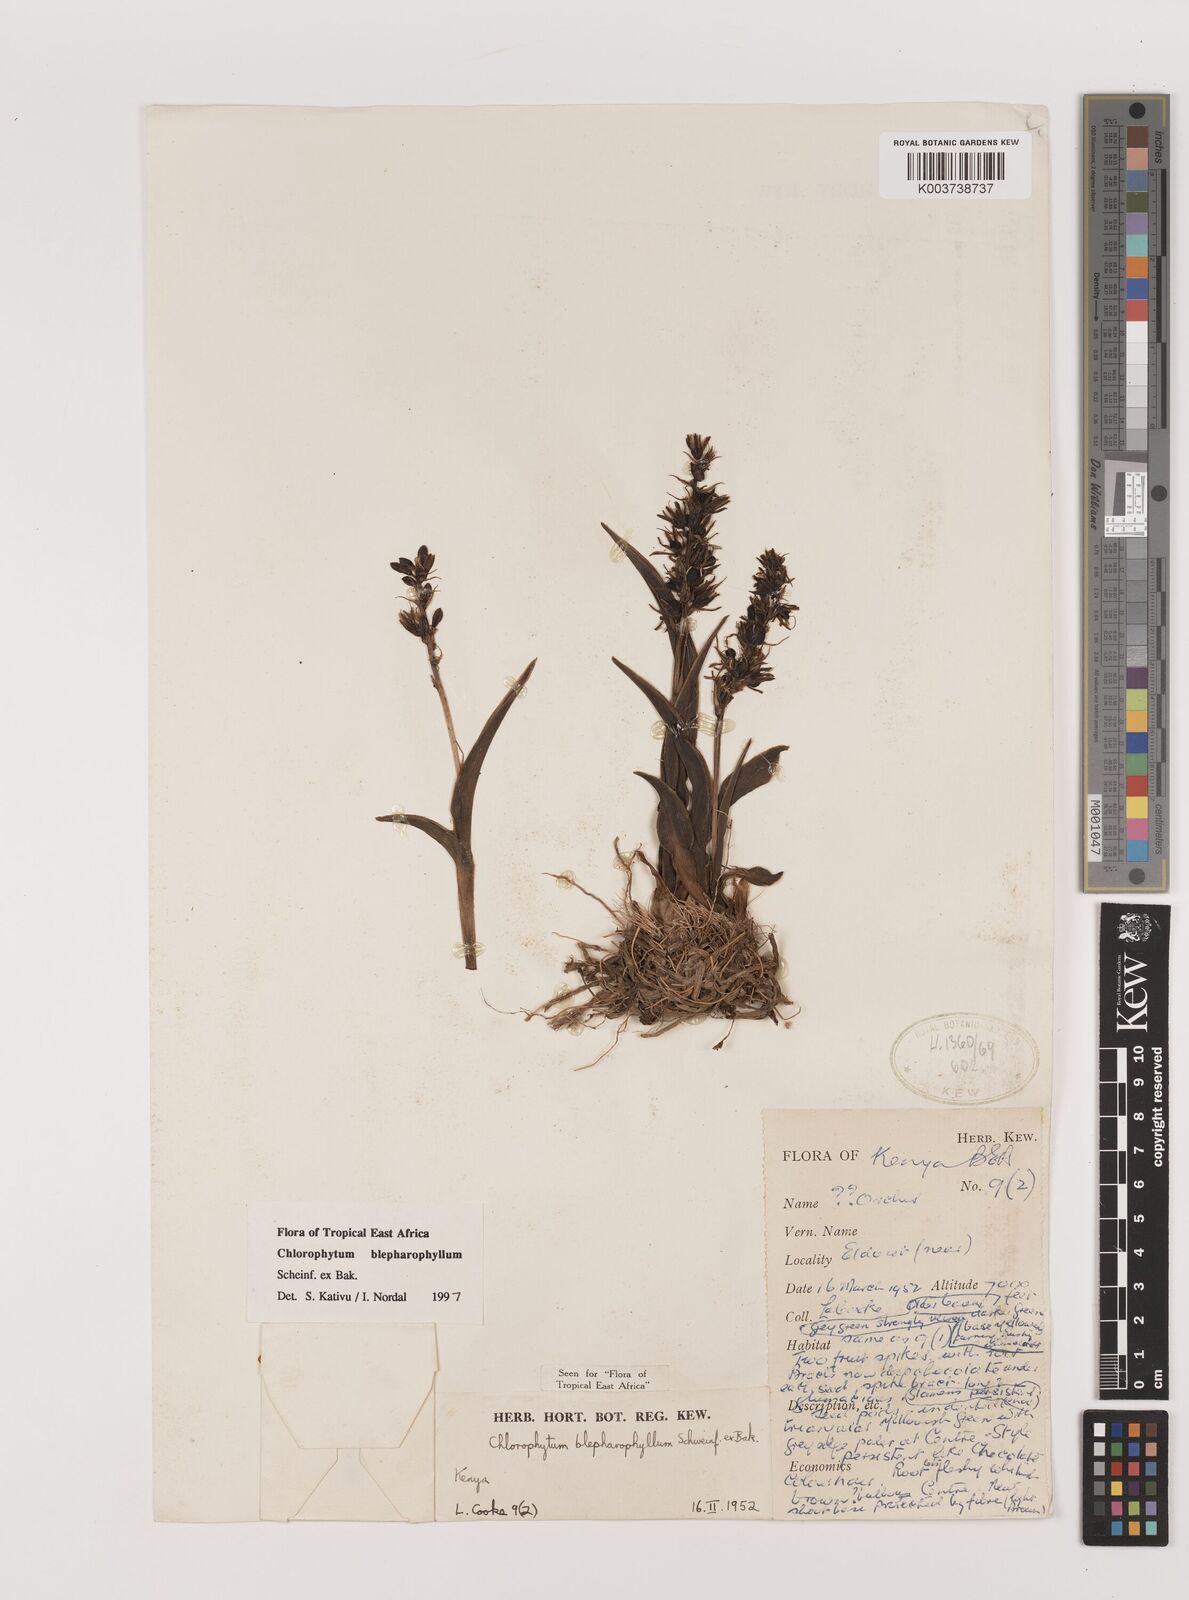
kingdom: Plantae
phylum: Tracheophyta
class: Liliopsida
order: Asparagales
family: Asparagaceae
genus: Chlorophytum
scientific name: Chlorophytum blepharophyllum
